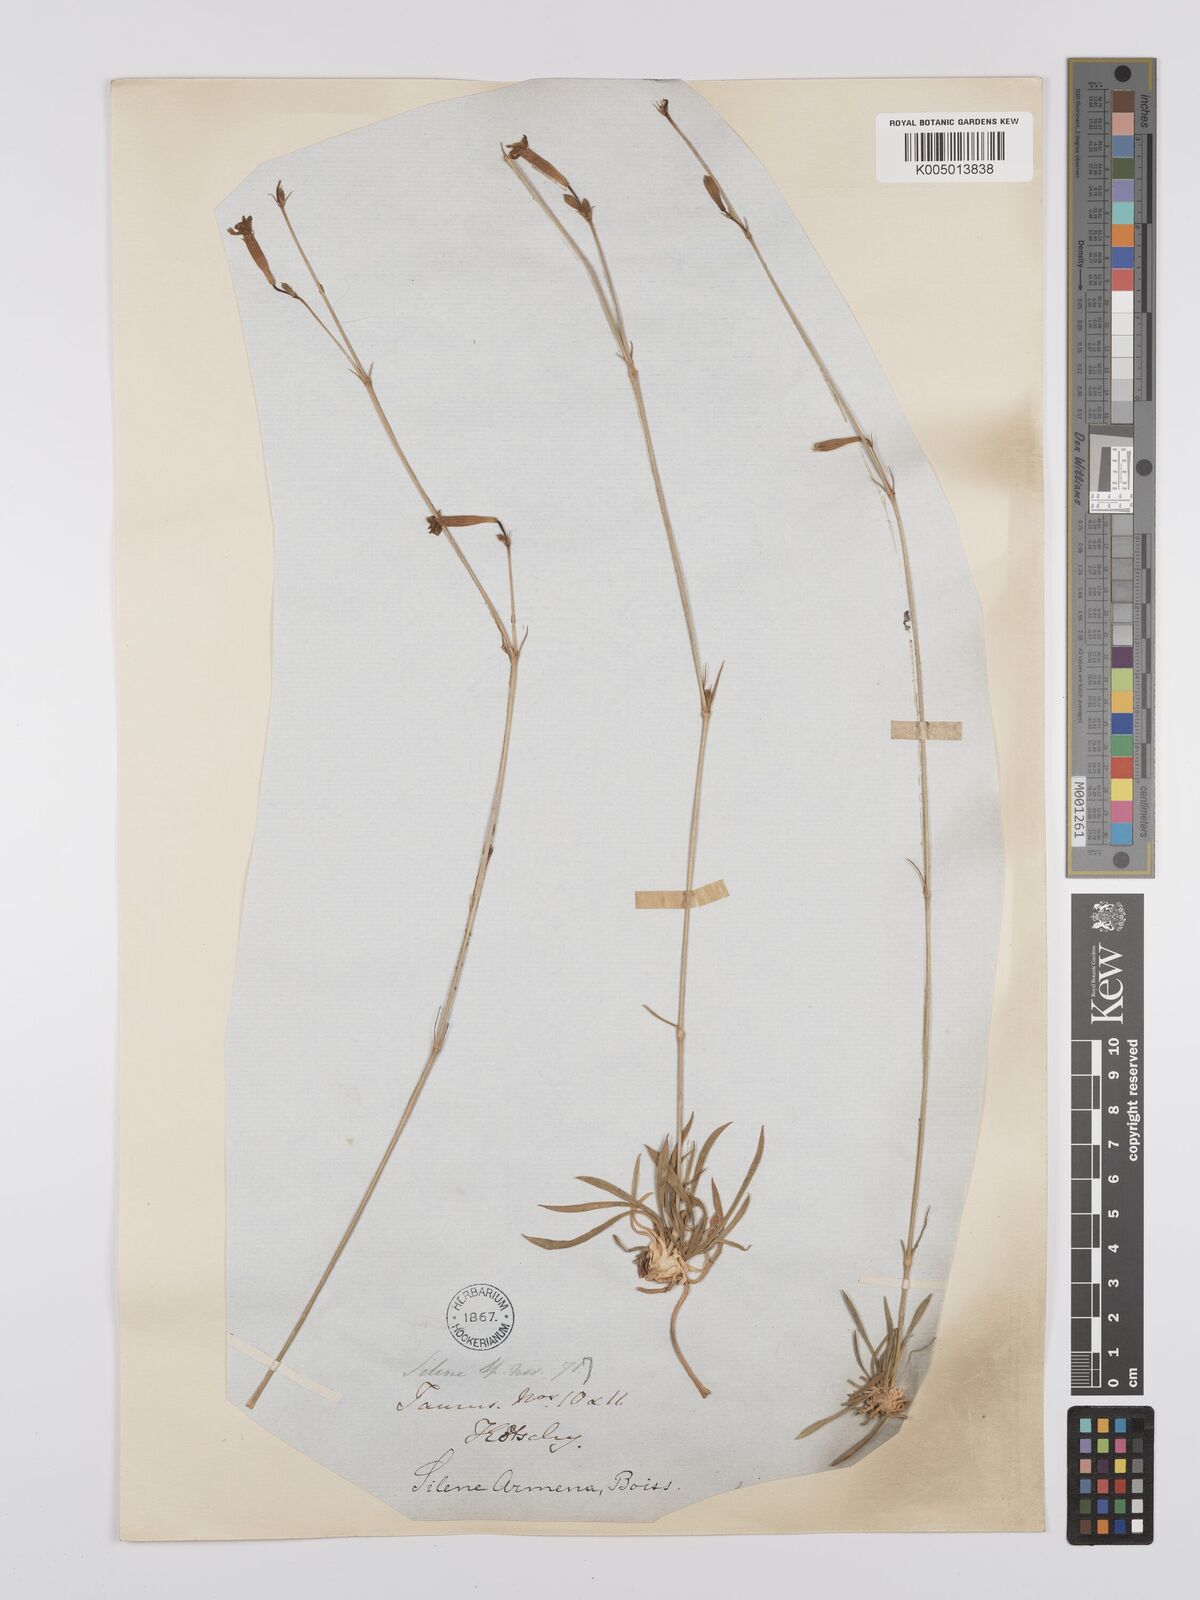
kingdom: Plantae
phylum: Tracheophyta
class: Magnoliopsida
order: Caryophyllales
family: Caryophyllaceae
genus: Silene
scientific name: Silene
